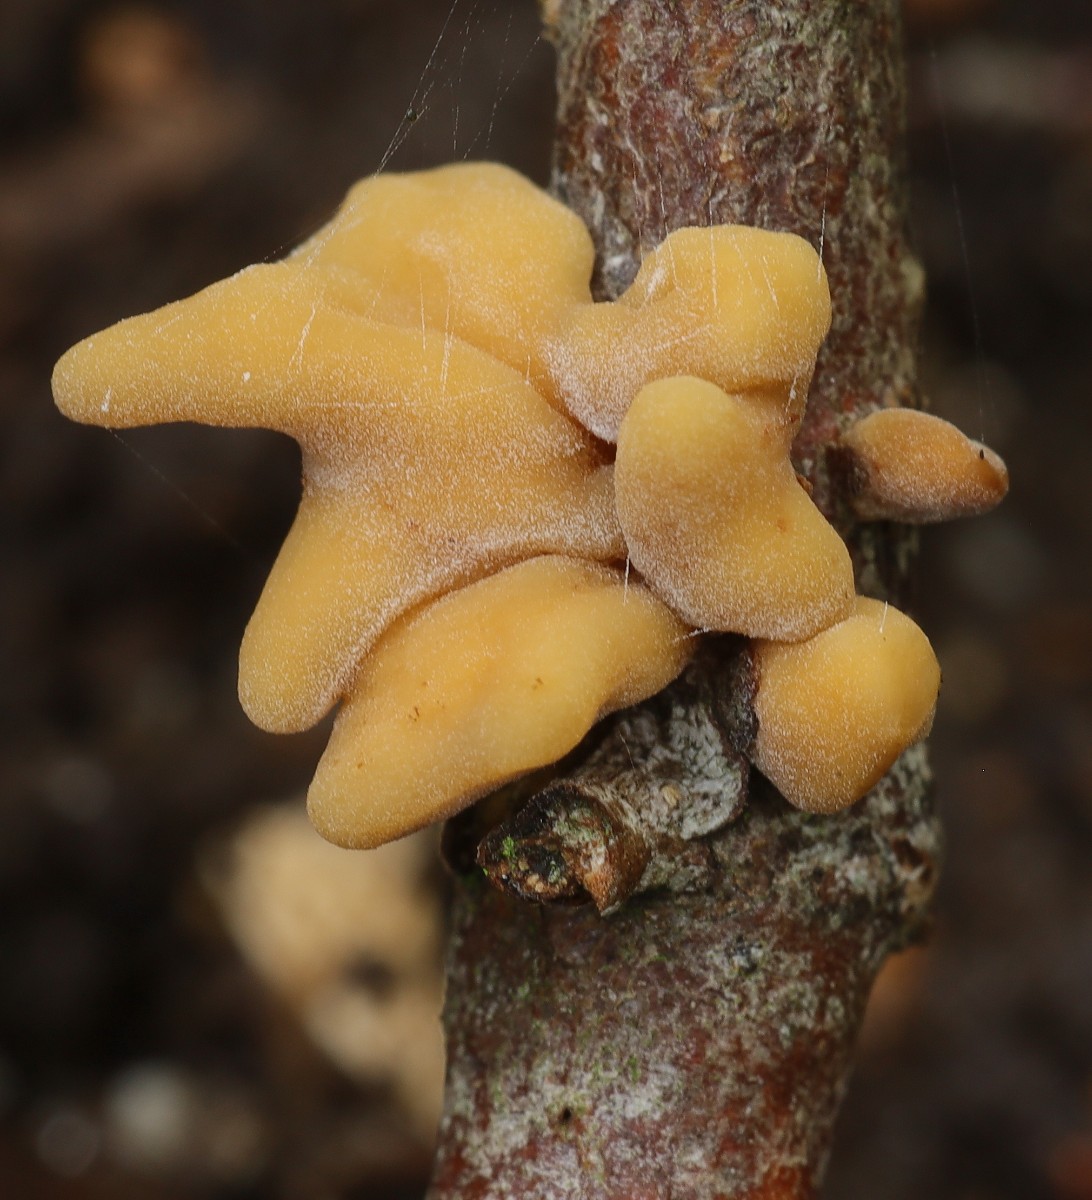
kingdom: Fungi
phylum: Basidiomycota
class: Agaricomycetes
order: Agaricales
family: Typhulaceae
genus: Typhula
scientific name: Typhula contorta
